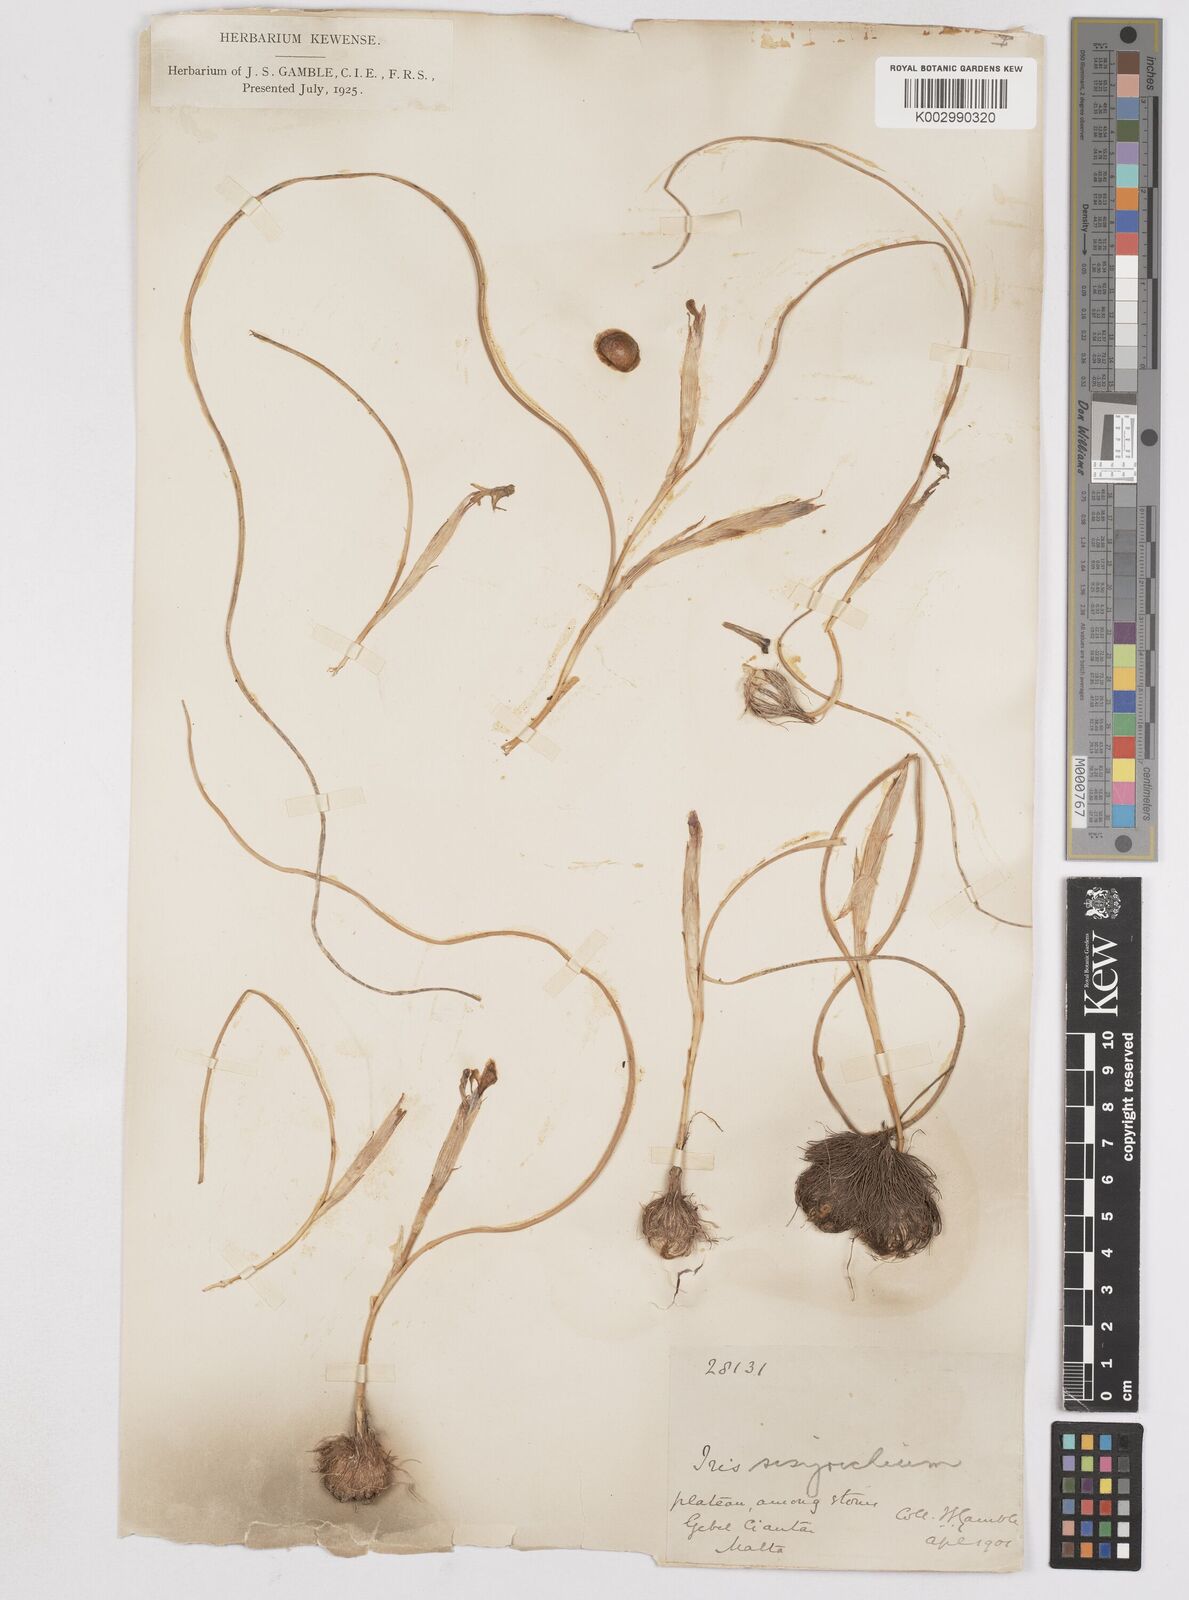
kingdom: Plantae
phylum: Tracheophyta
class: Liliopsida
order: Asparagales
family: Iridaceae
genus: Moraea
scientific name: Moraea sisyrinchium
